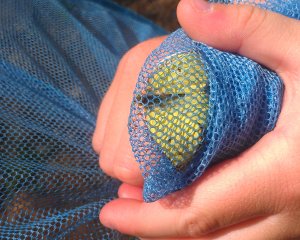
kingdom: Animalia
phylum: Arthropoda
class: Insecta
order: Lepidoptera
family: Pieridae
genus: Colias
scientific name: Colias philodice
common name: Clouded Sulphur
